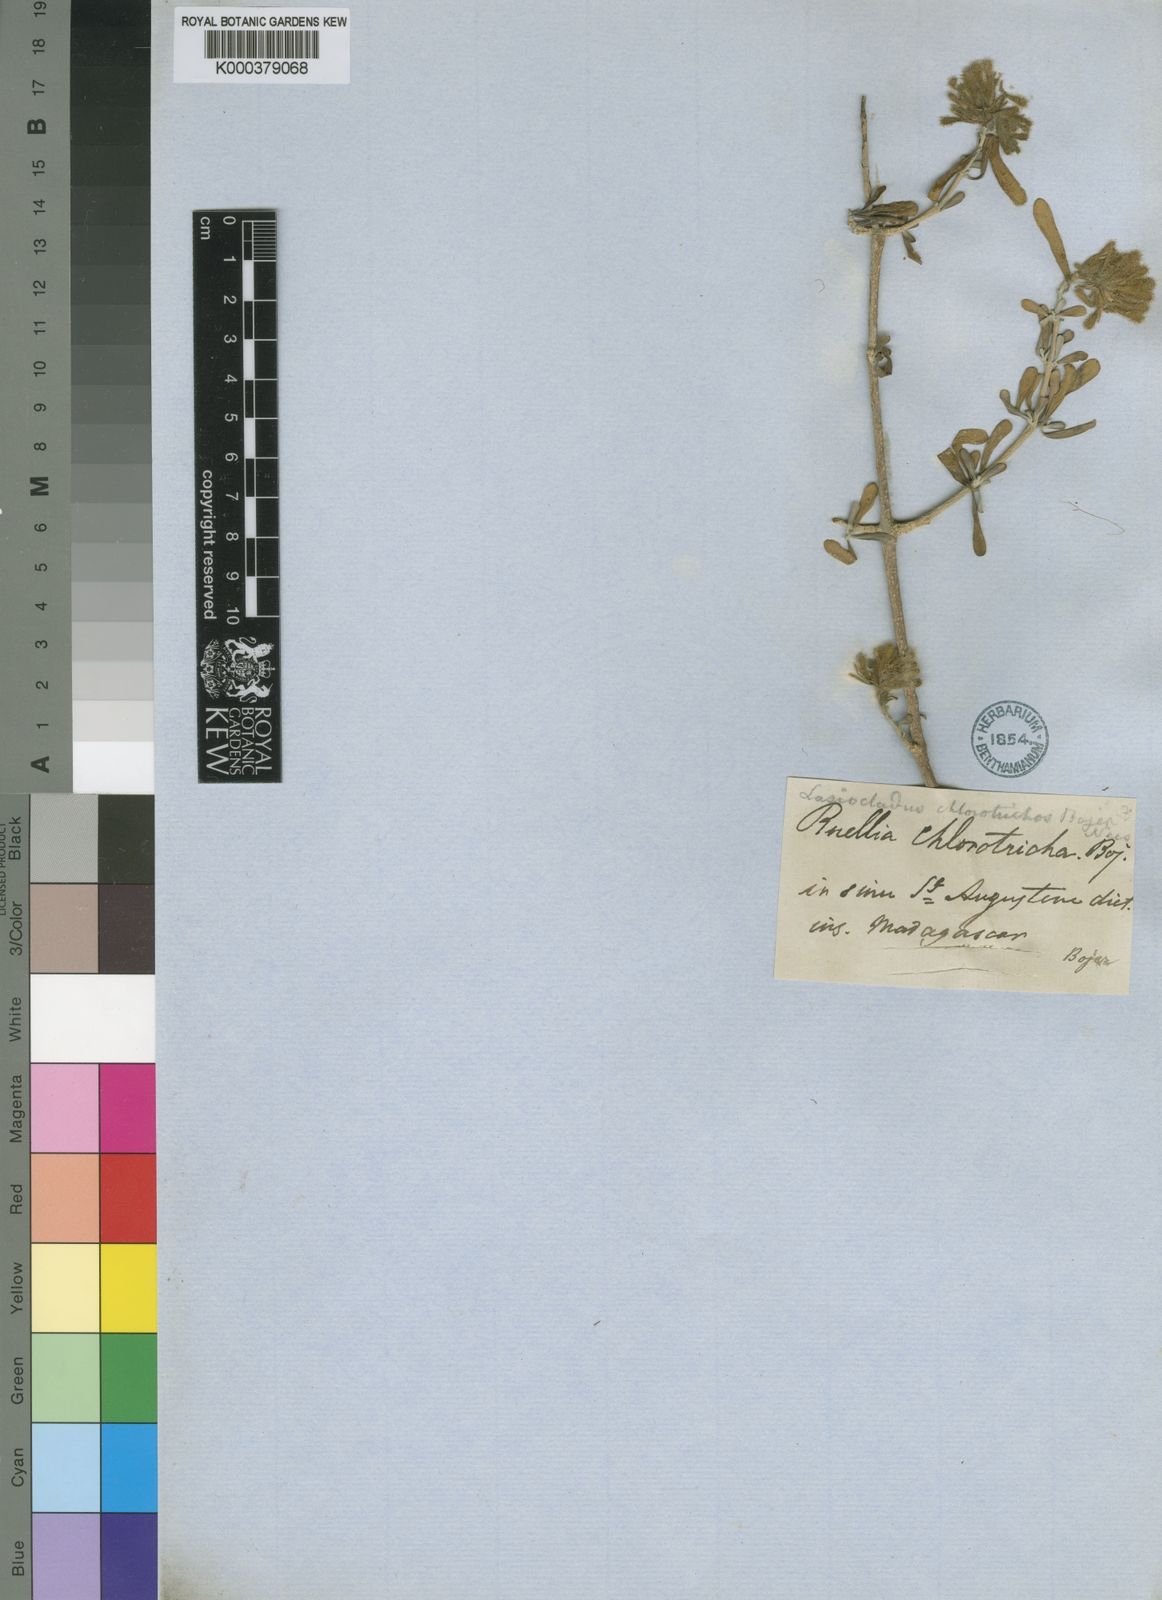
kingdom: Plantae
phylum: Tracheophyta
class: Magnoliopsida
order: Lamiales
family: Acanthaceae
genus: Hypoestes
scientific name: Hypoestes chlorotricha
